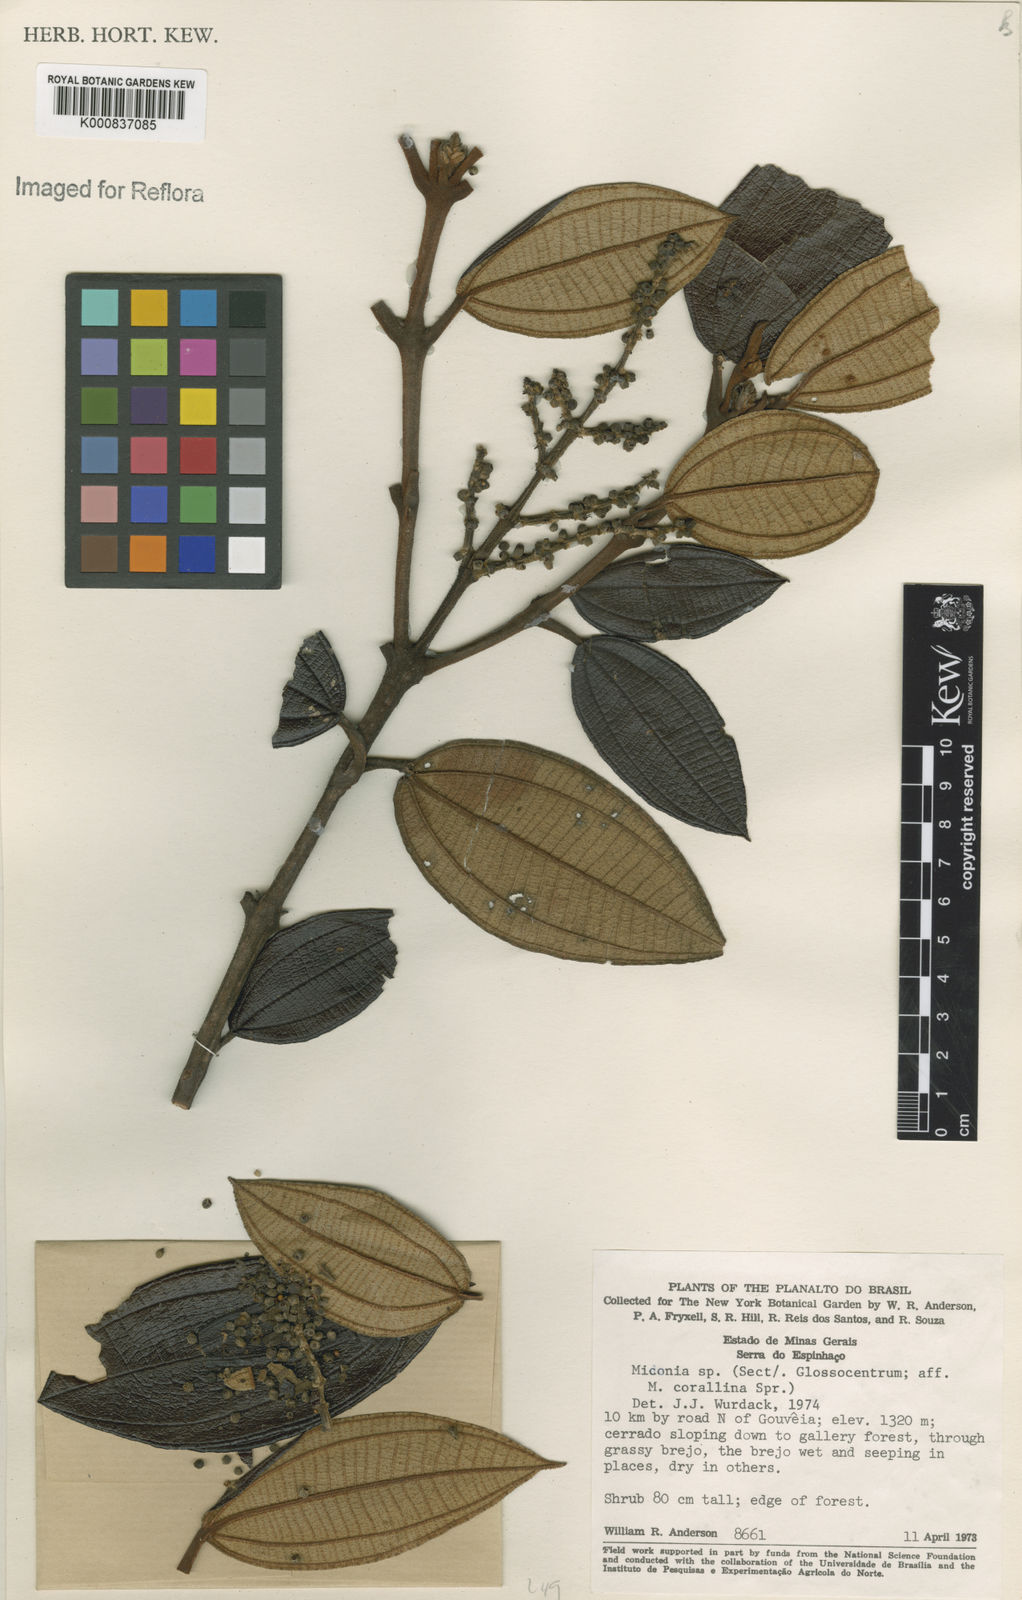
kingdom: Plantae
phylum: Tracheophyta
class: Magnoliopsida
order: Myrtales
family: Melastomataceae
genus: Miconia
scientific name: Miconia sclerophylla
